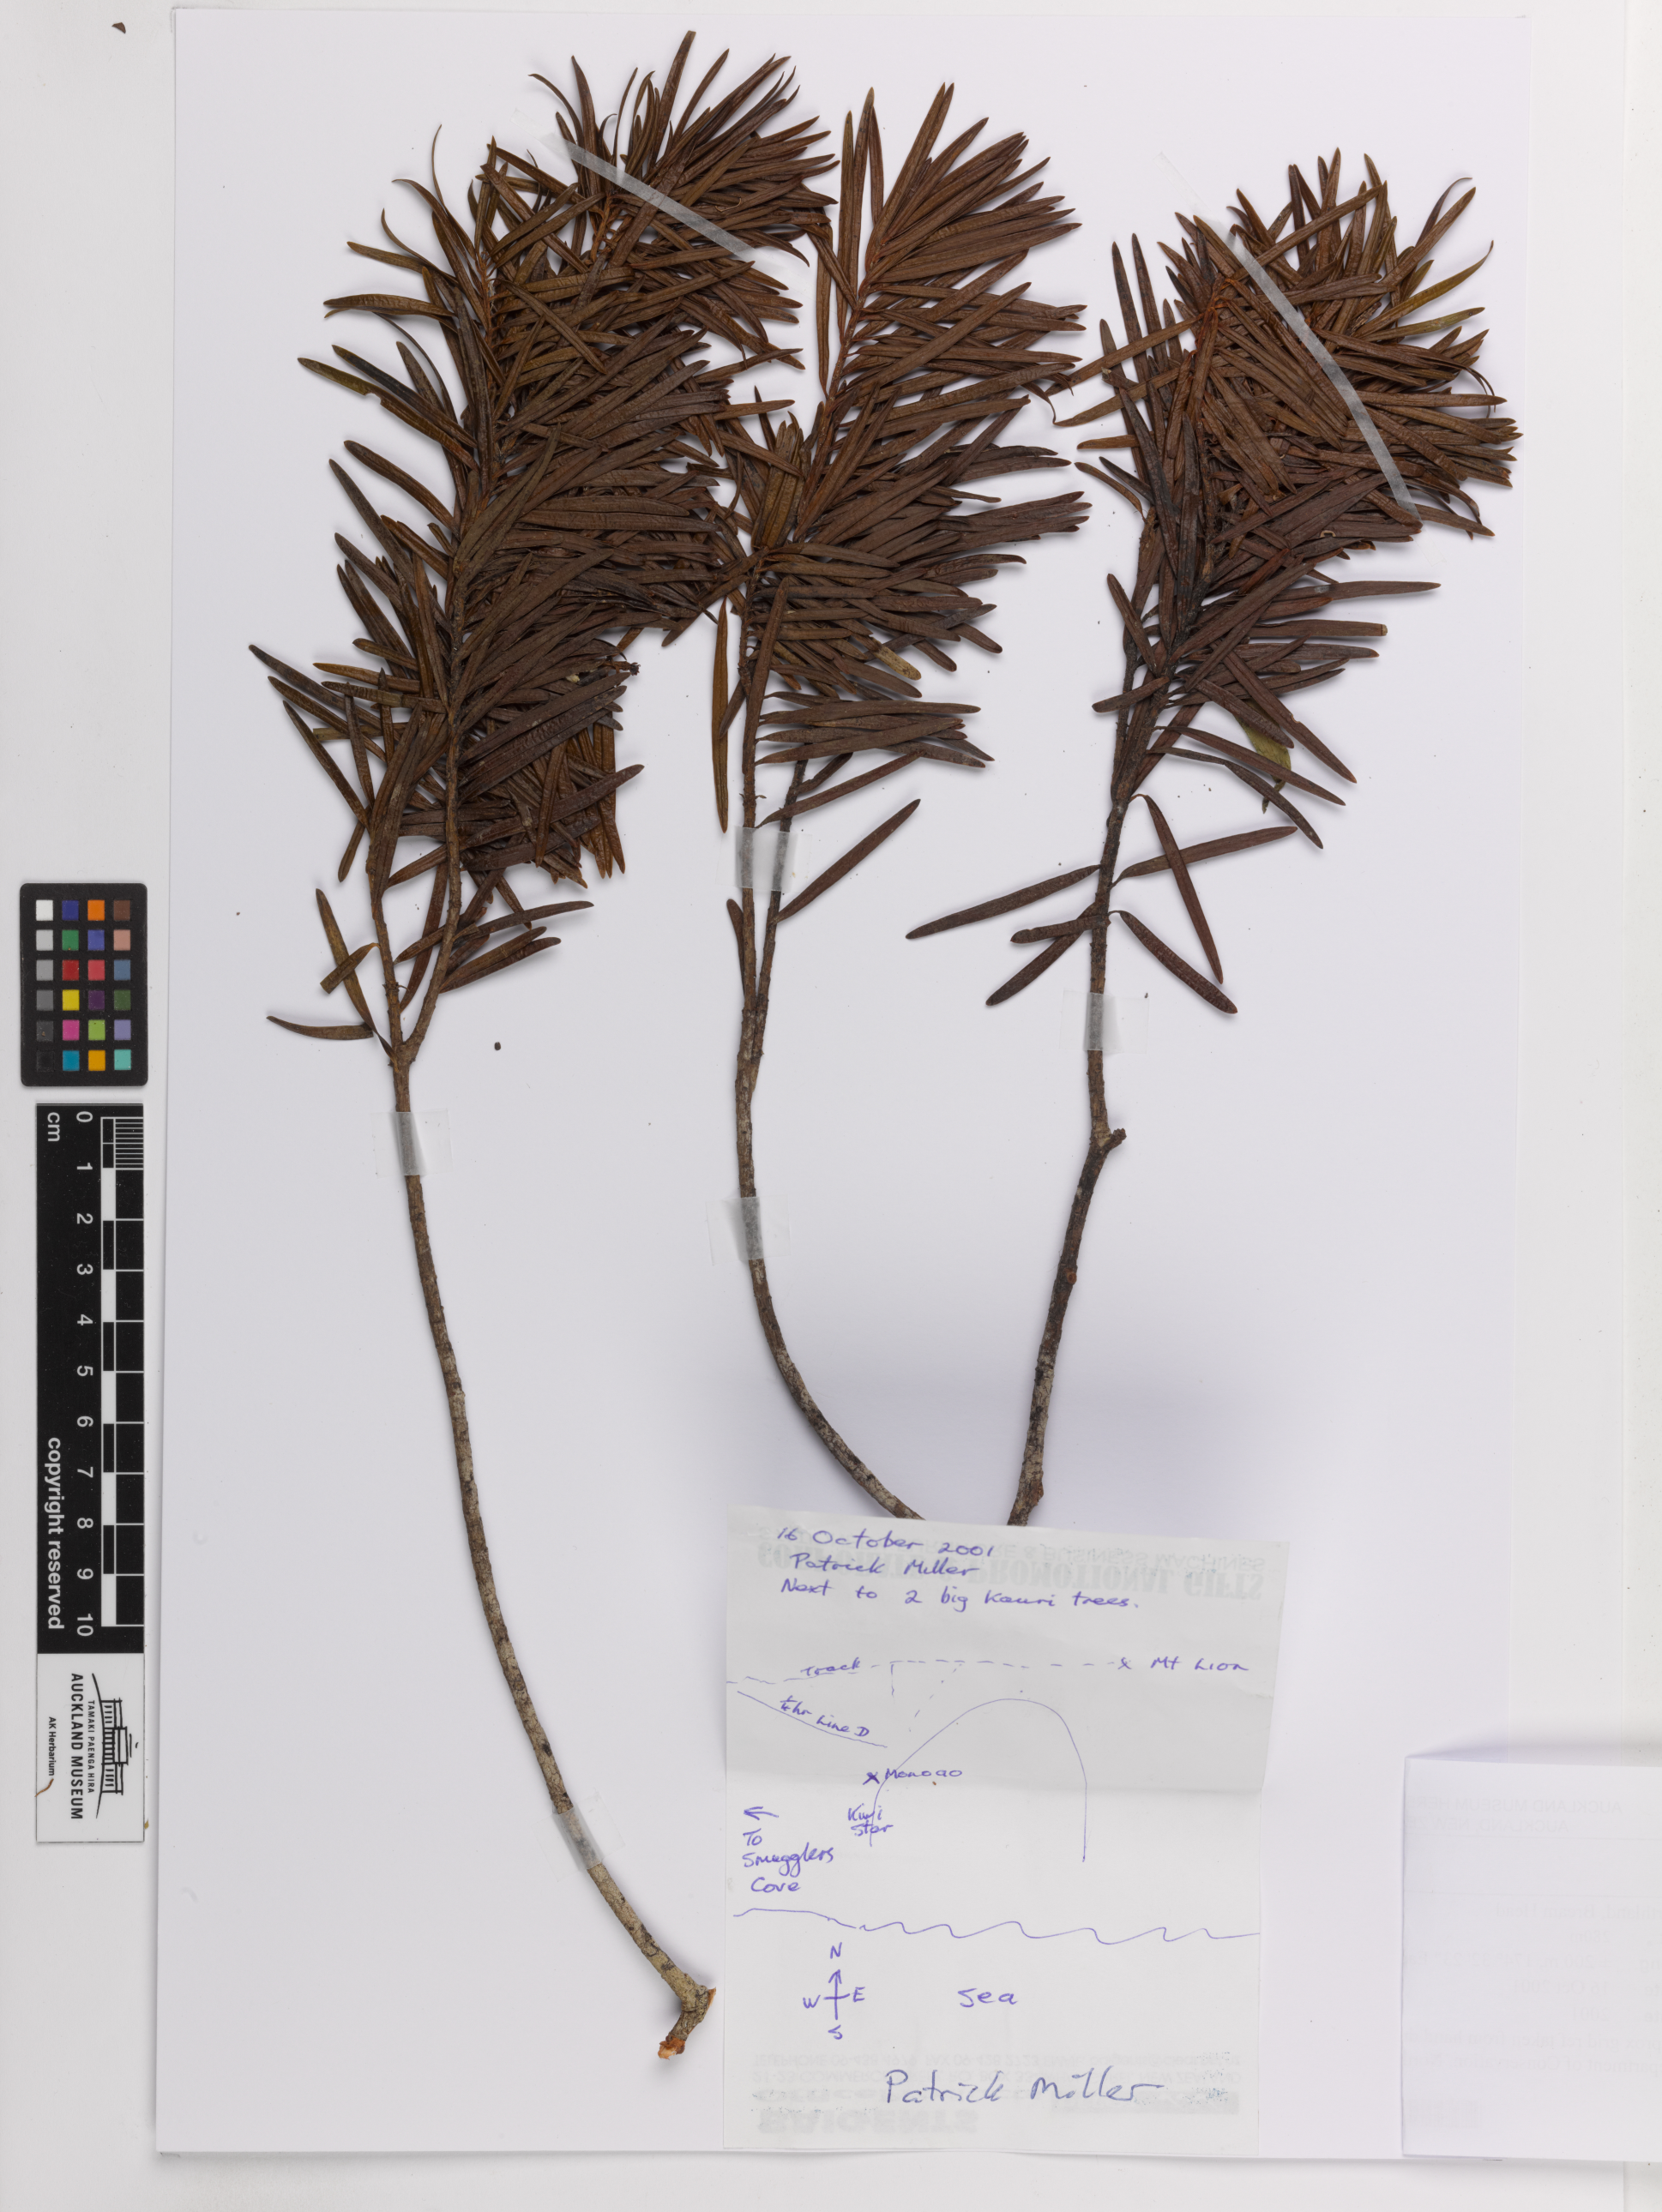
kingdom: Plantae
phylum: Tracheophyta
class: Pinopsida
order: Pinales
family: Podocarpaceae
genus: Halocarpus
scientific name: Halocarpus kirkii
